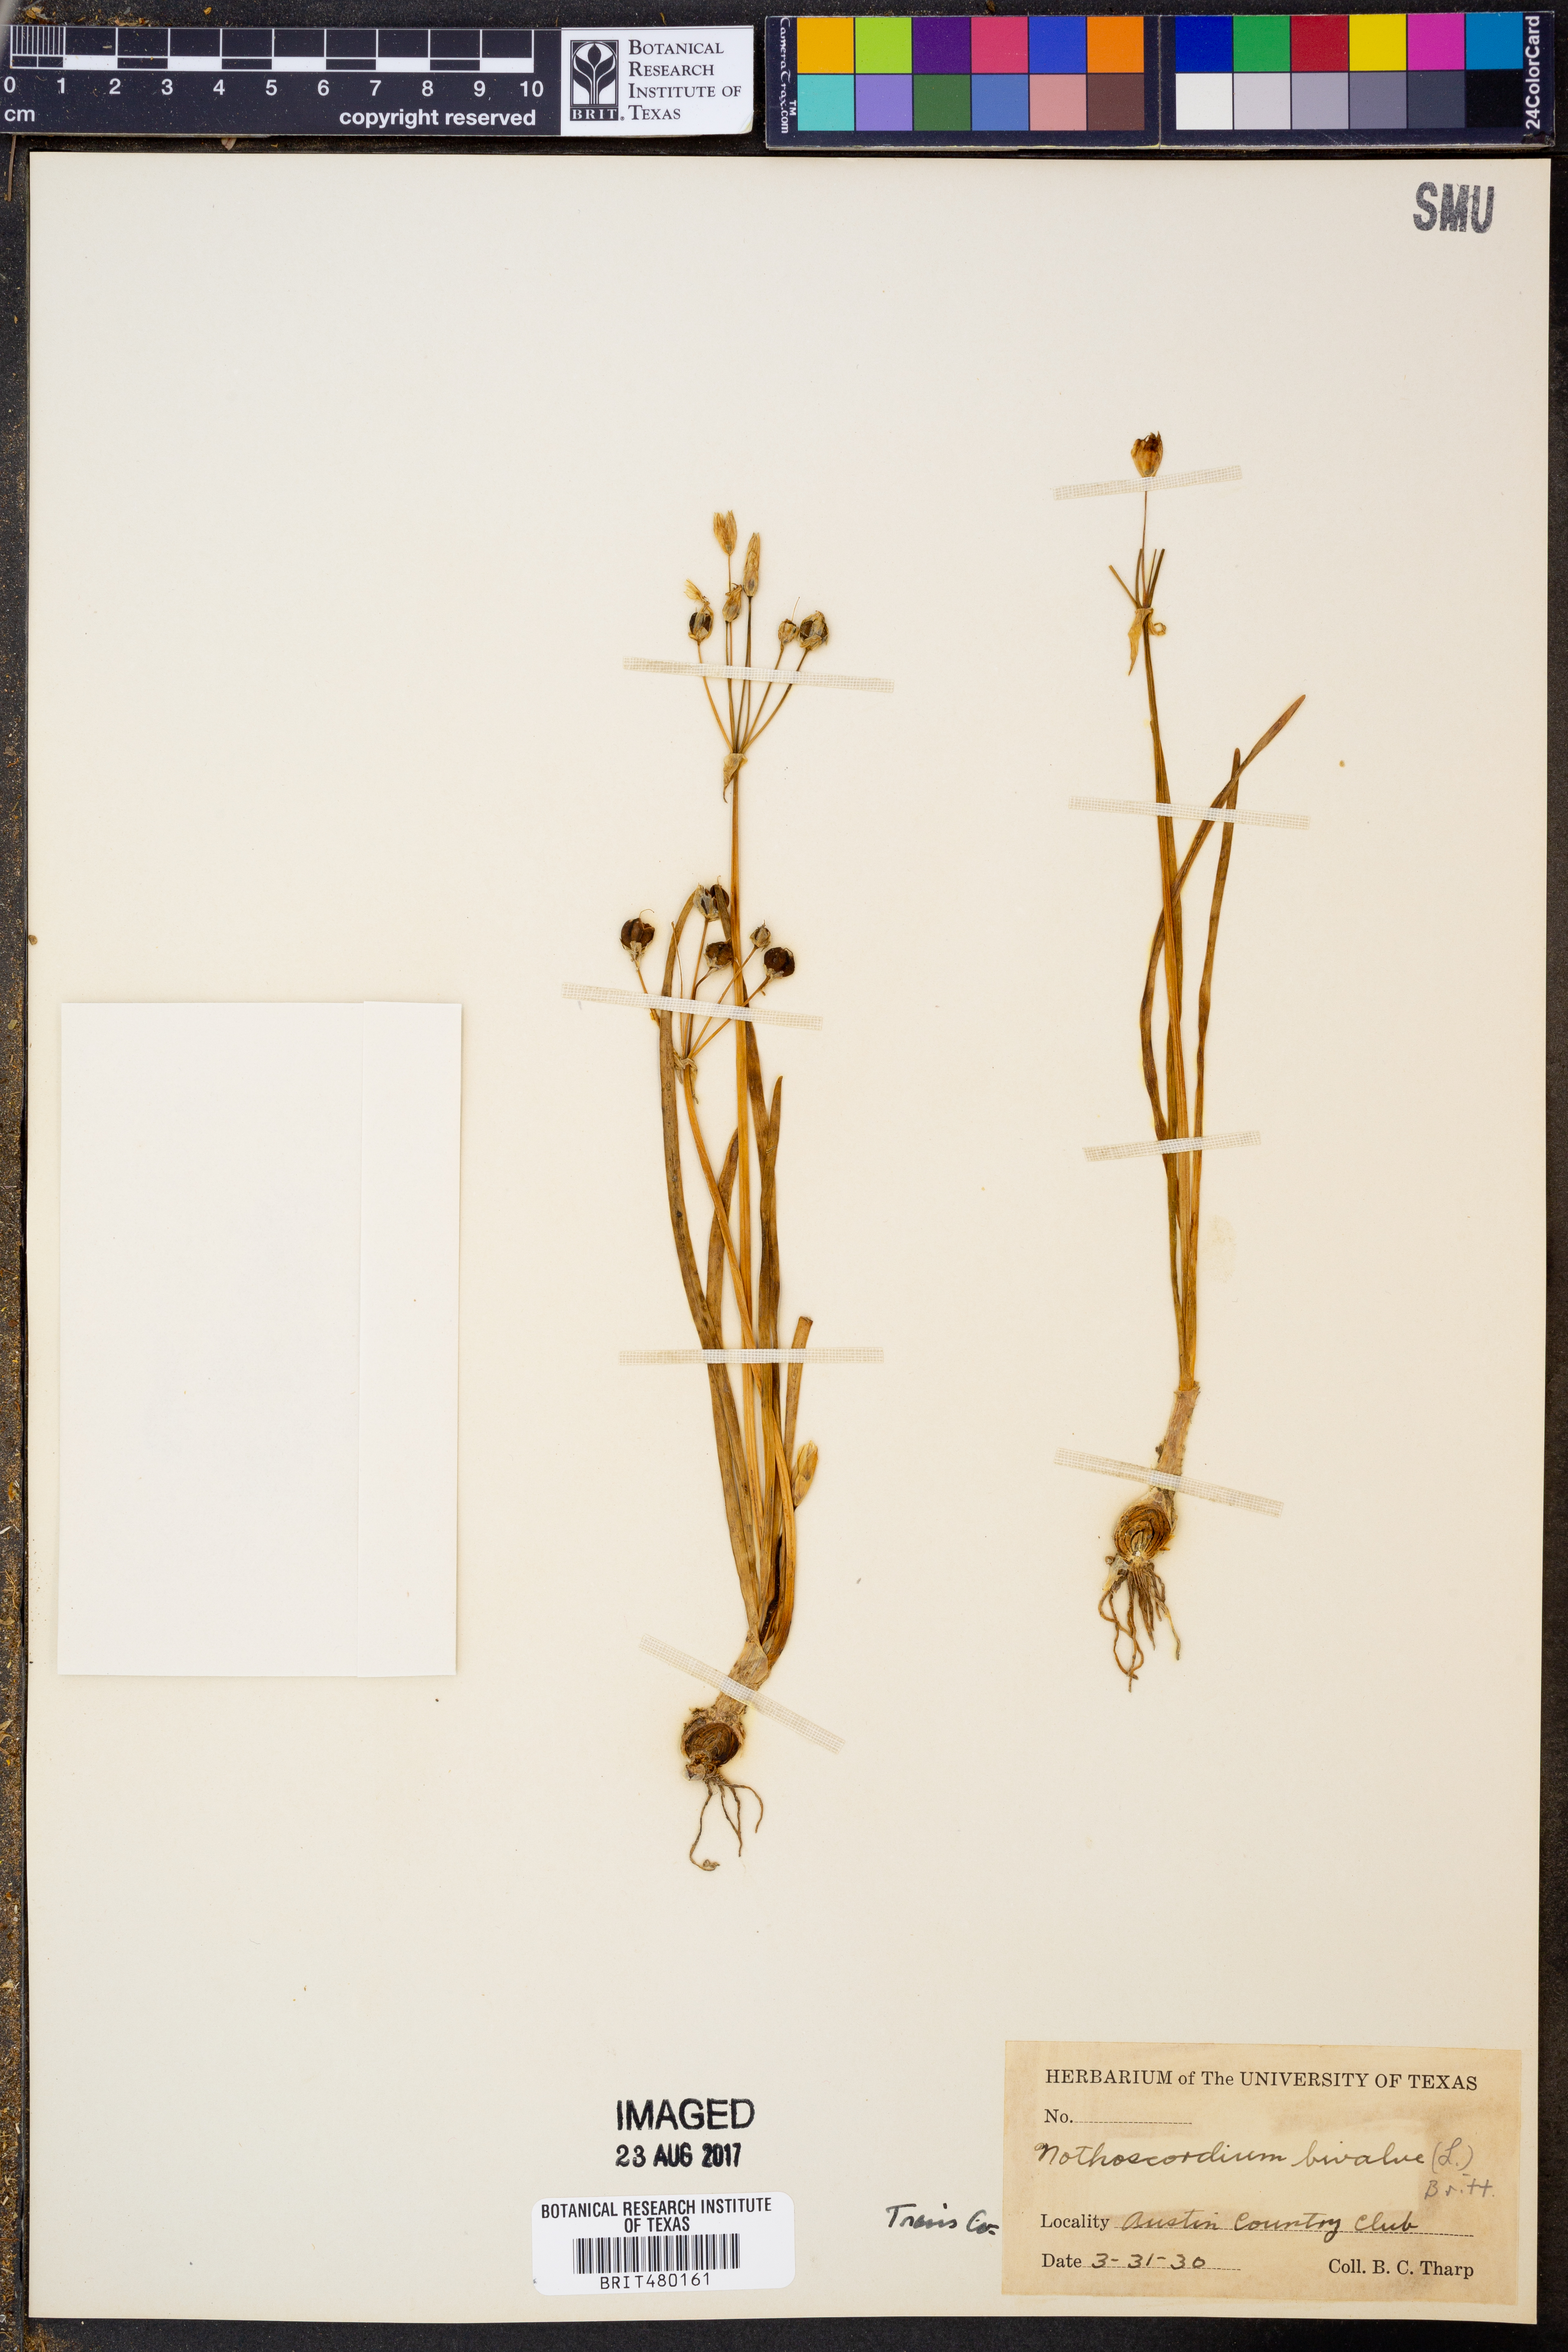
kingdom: Plantae
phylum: Tracheophyta
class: Liliopsida
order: Asparagales
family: Amaryllidaceae
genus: Nothoscordum
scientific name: Nothoscordum bivalve
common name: Crow-poison
